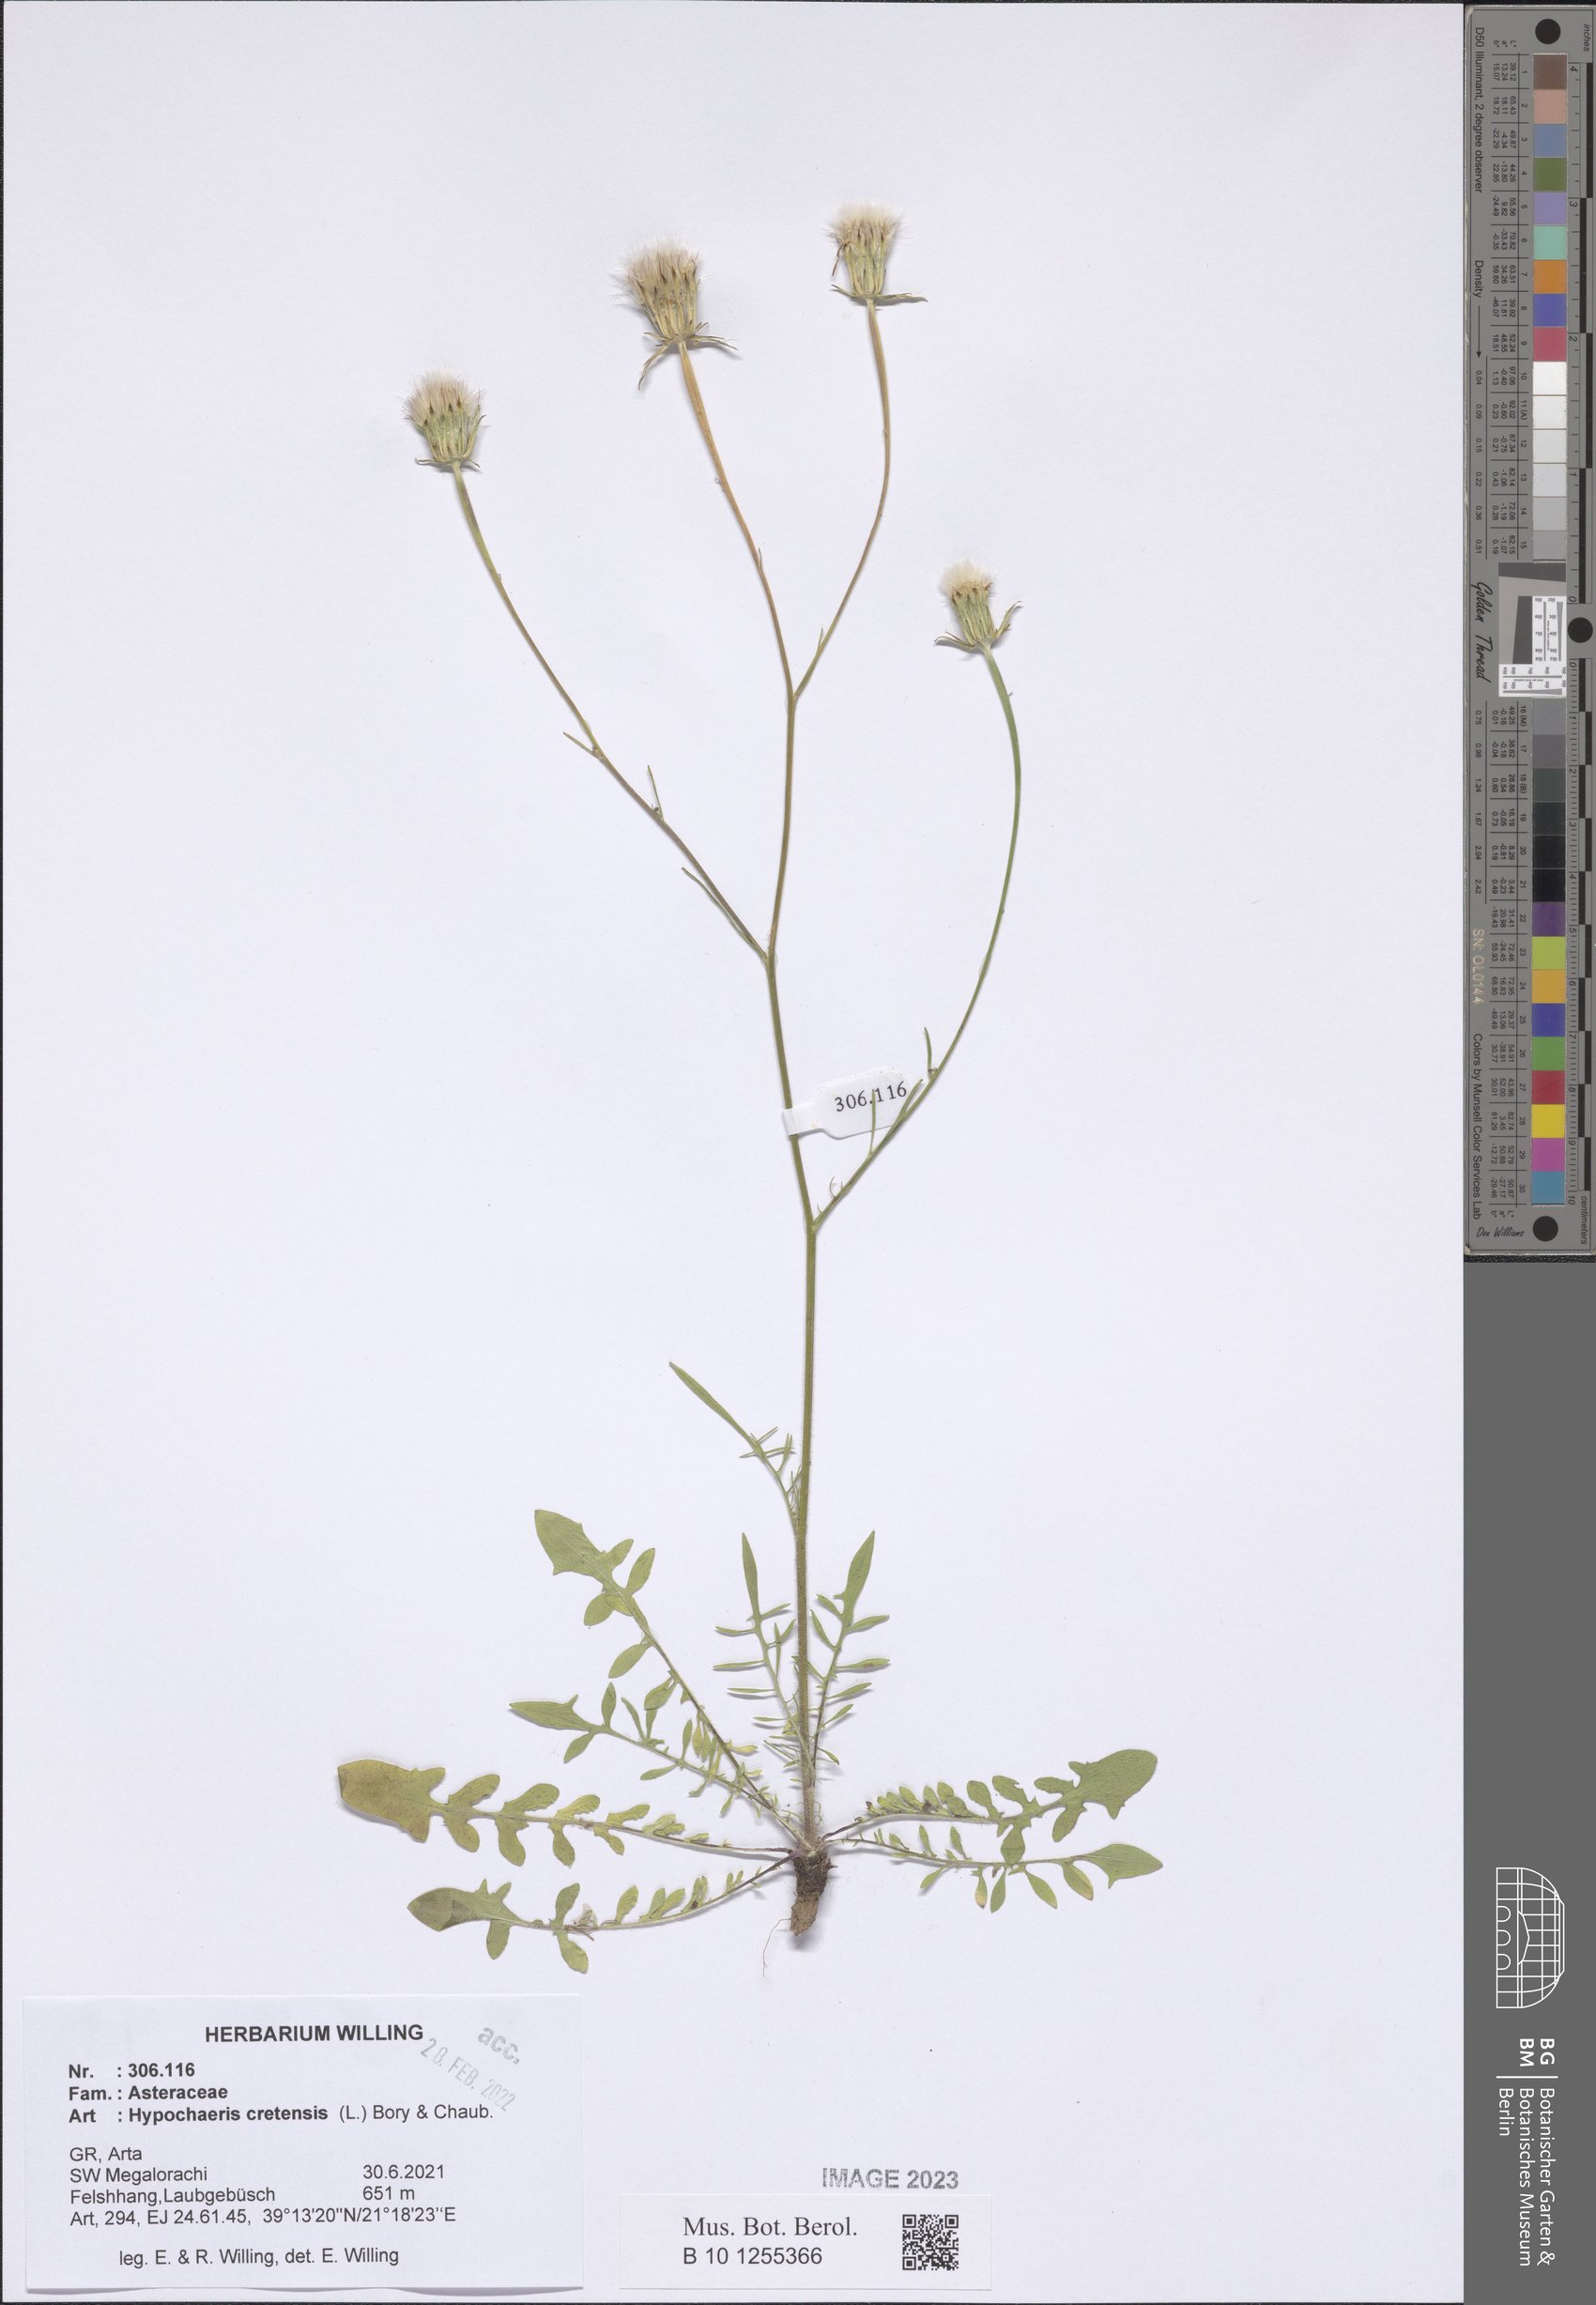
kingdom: Plantae
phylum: Tracheophyta
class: Magnoliopsida
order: Asterales
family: Asteraceae
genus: Hypochaeris
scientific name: Hypochaeris cretensis
